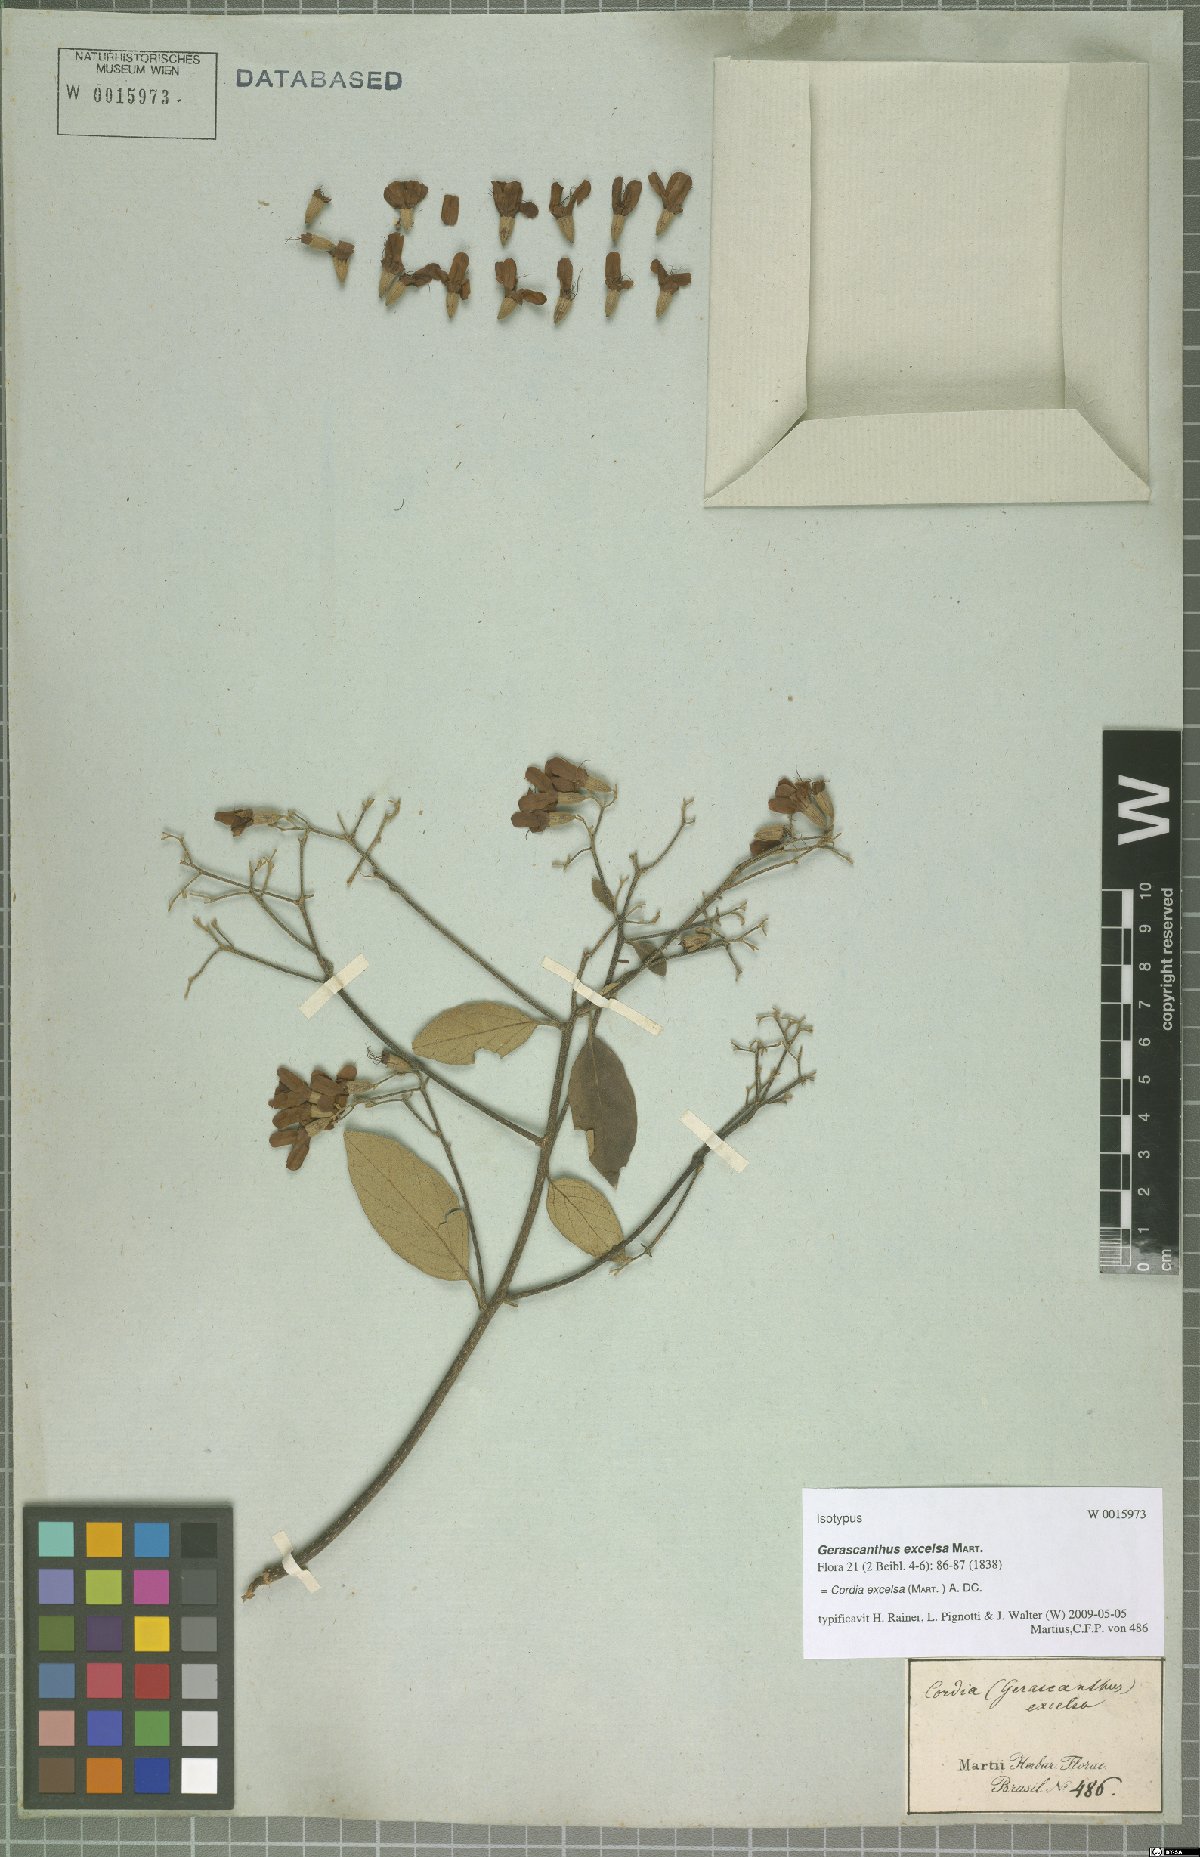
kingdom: Plantae
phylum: Tracheophyta
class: Magnoliopsida
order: Boraginales
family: Cordiaceae
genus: Cordia
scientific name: Cordia trichotoma
